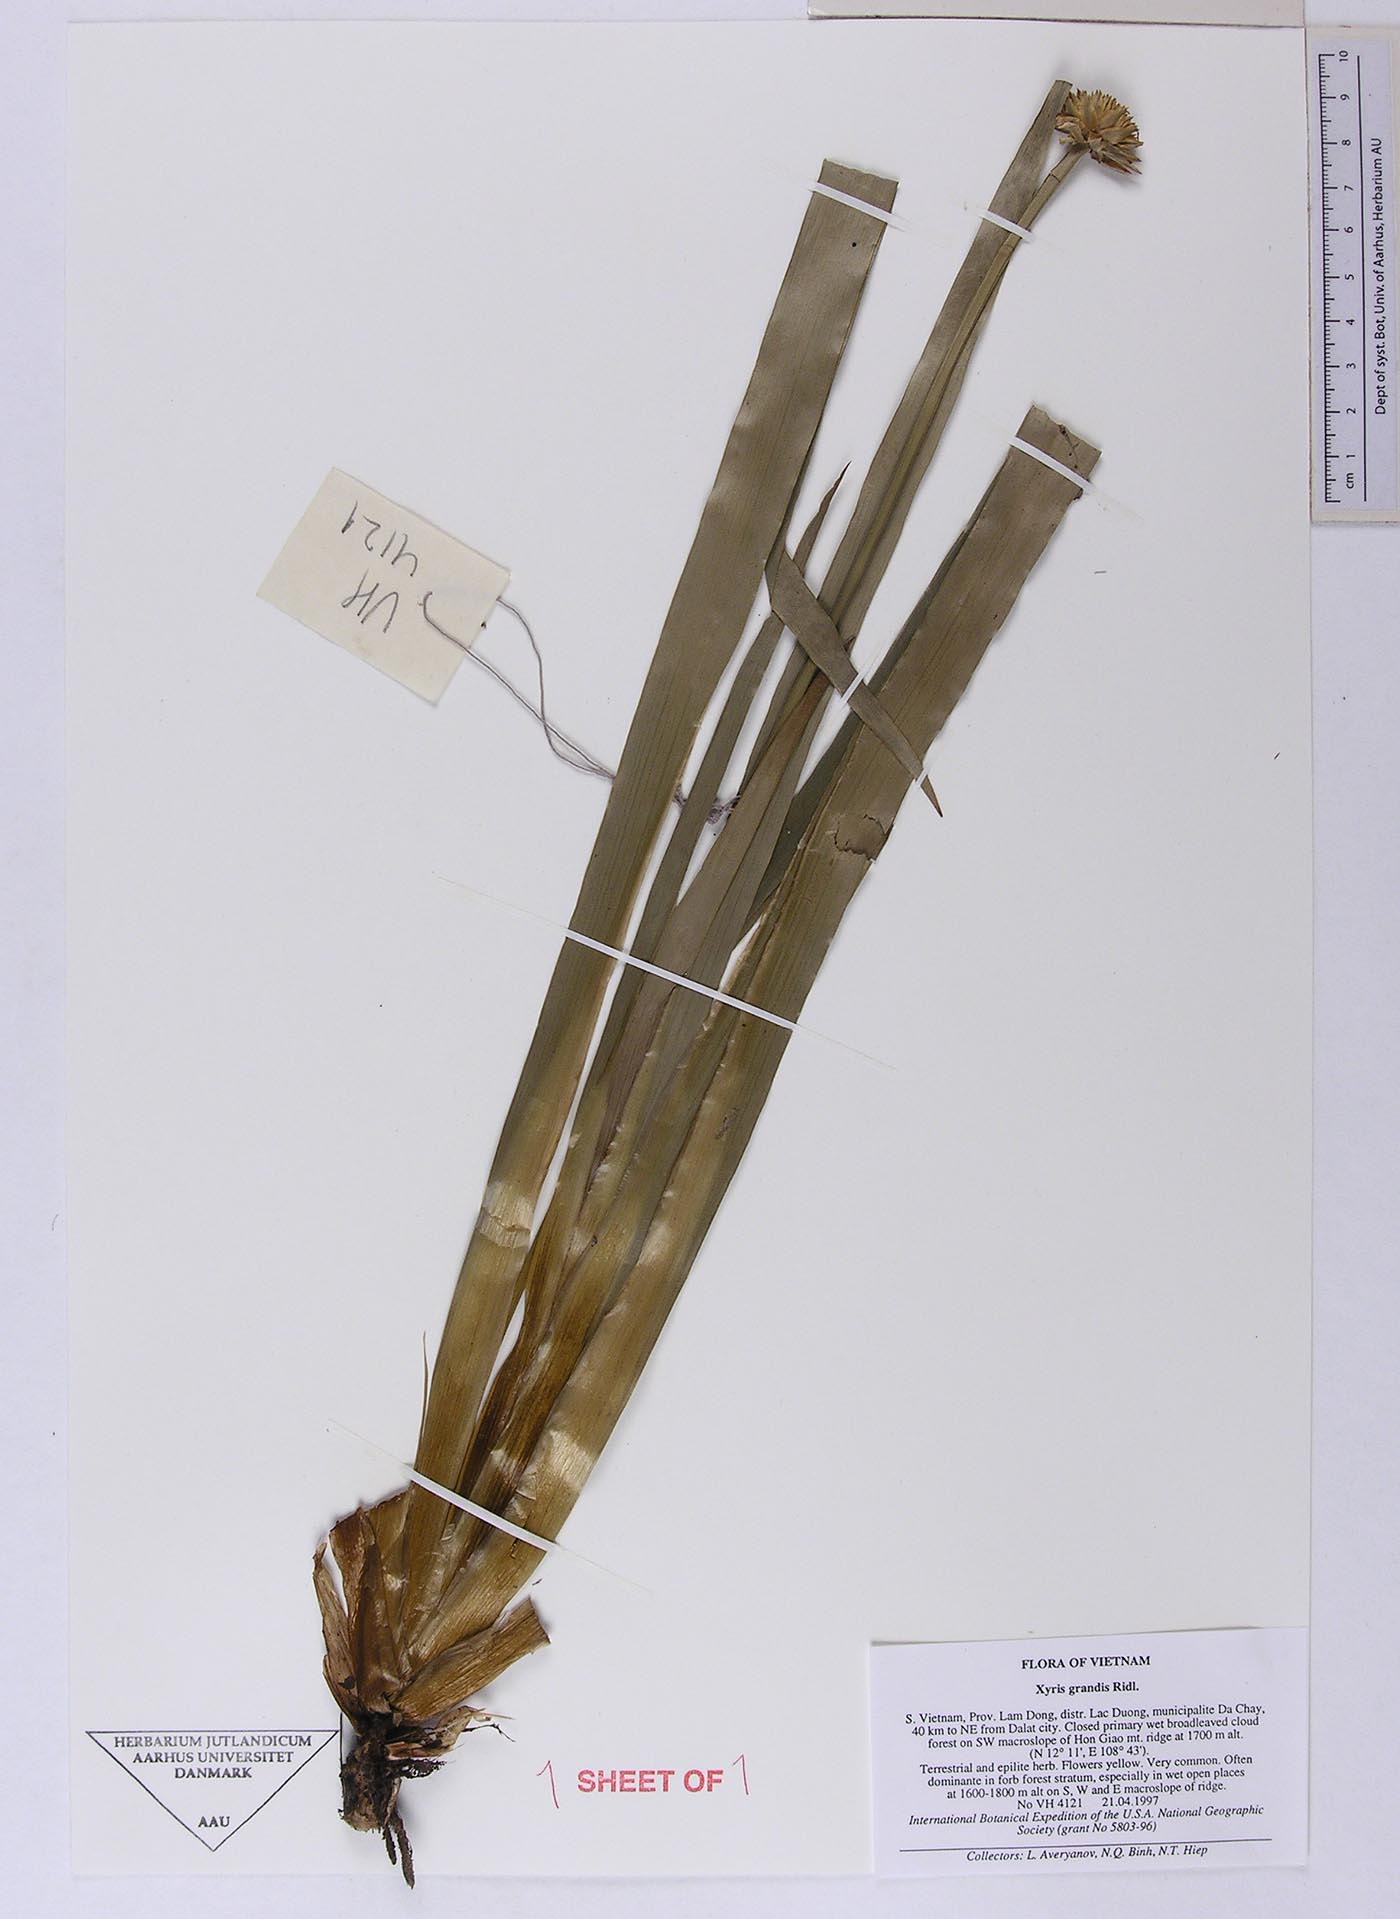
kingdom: Plantae
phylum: Tracheophyta
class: Liliopsida
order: Poales
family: Xyridaceae
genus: Xyris
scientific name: Xyris grandis
